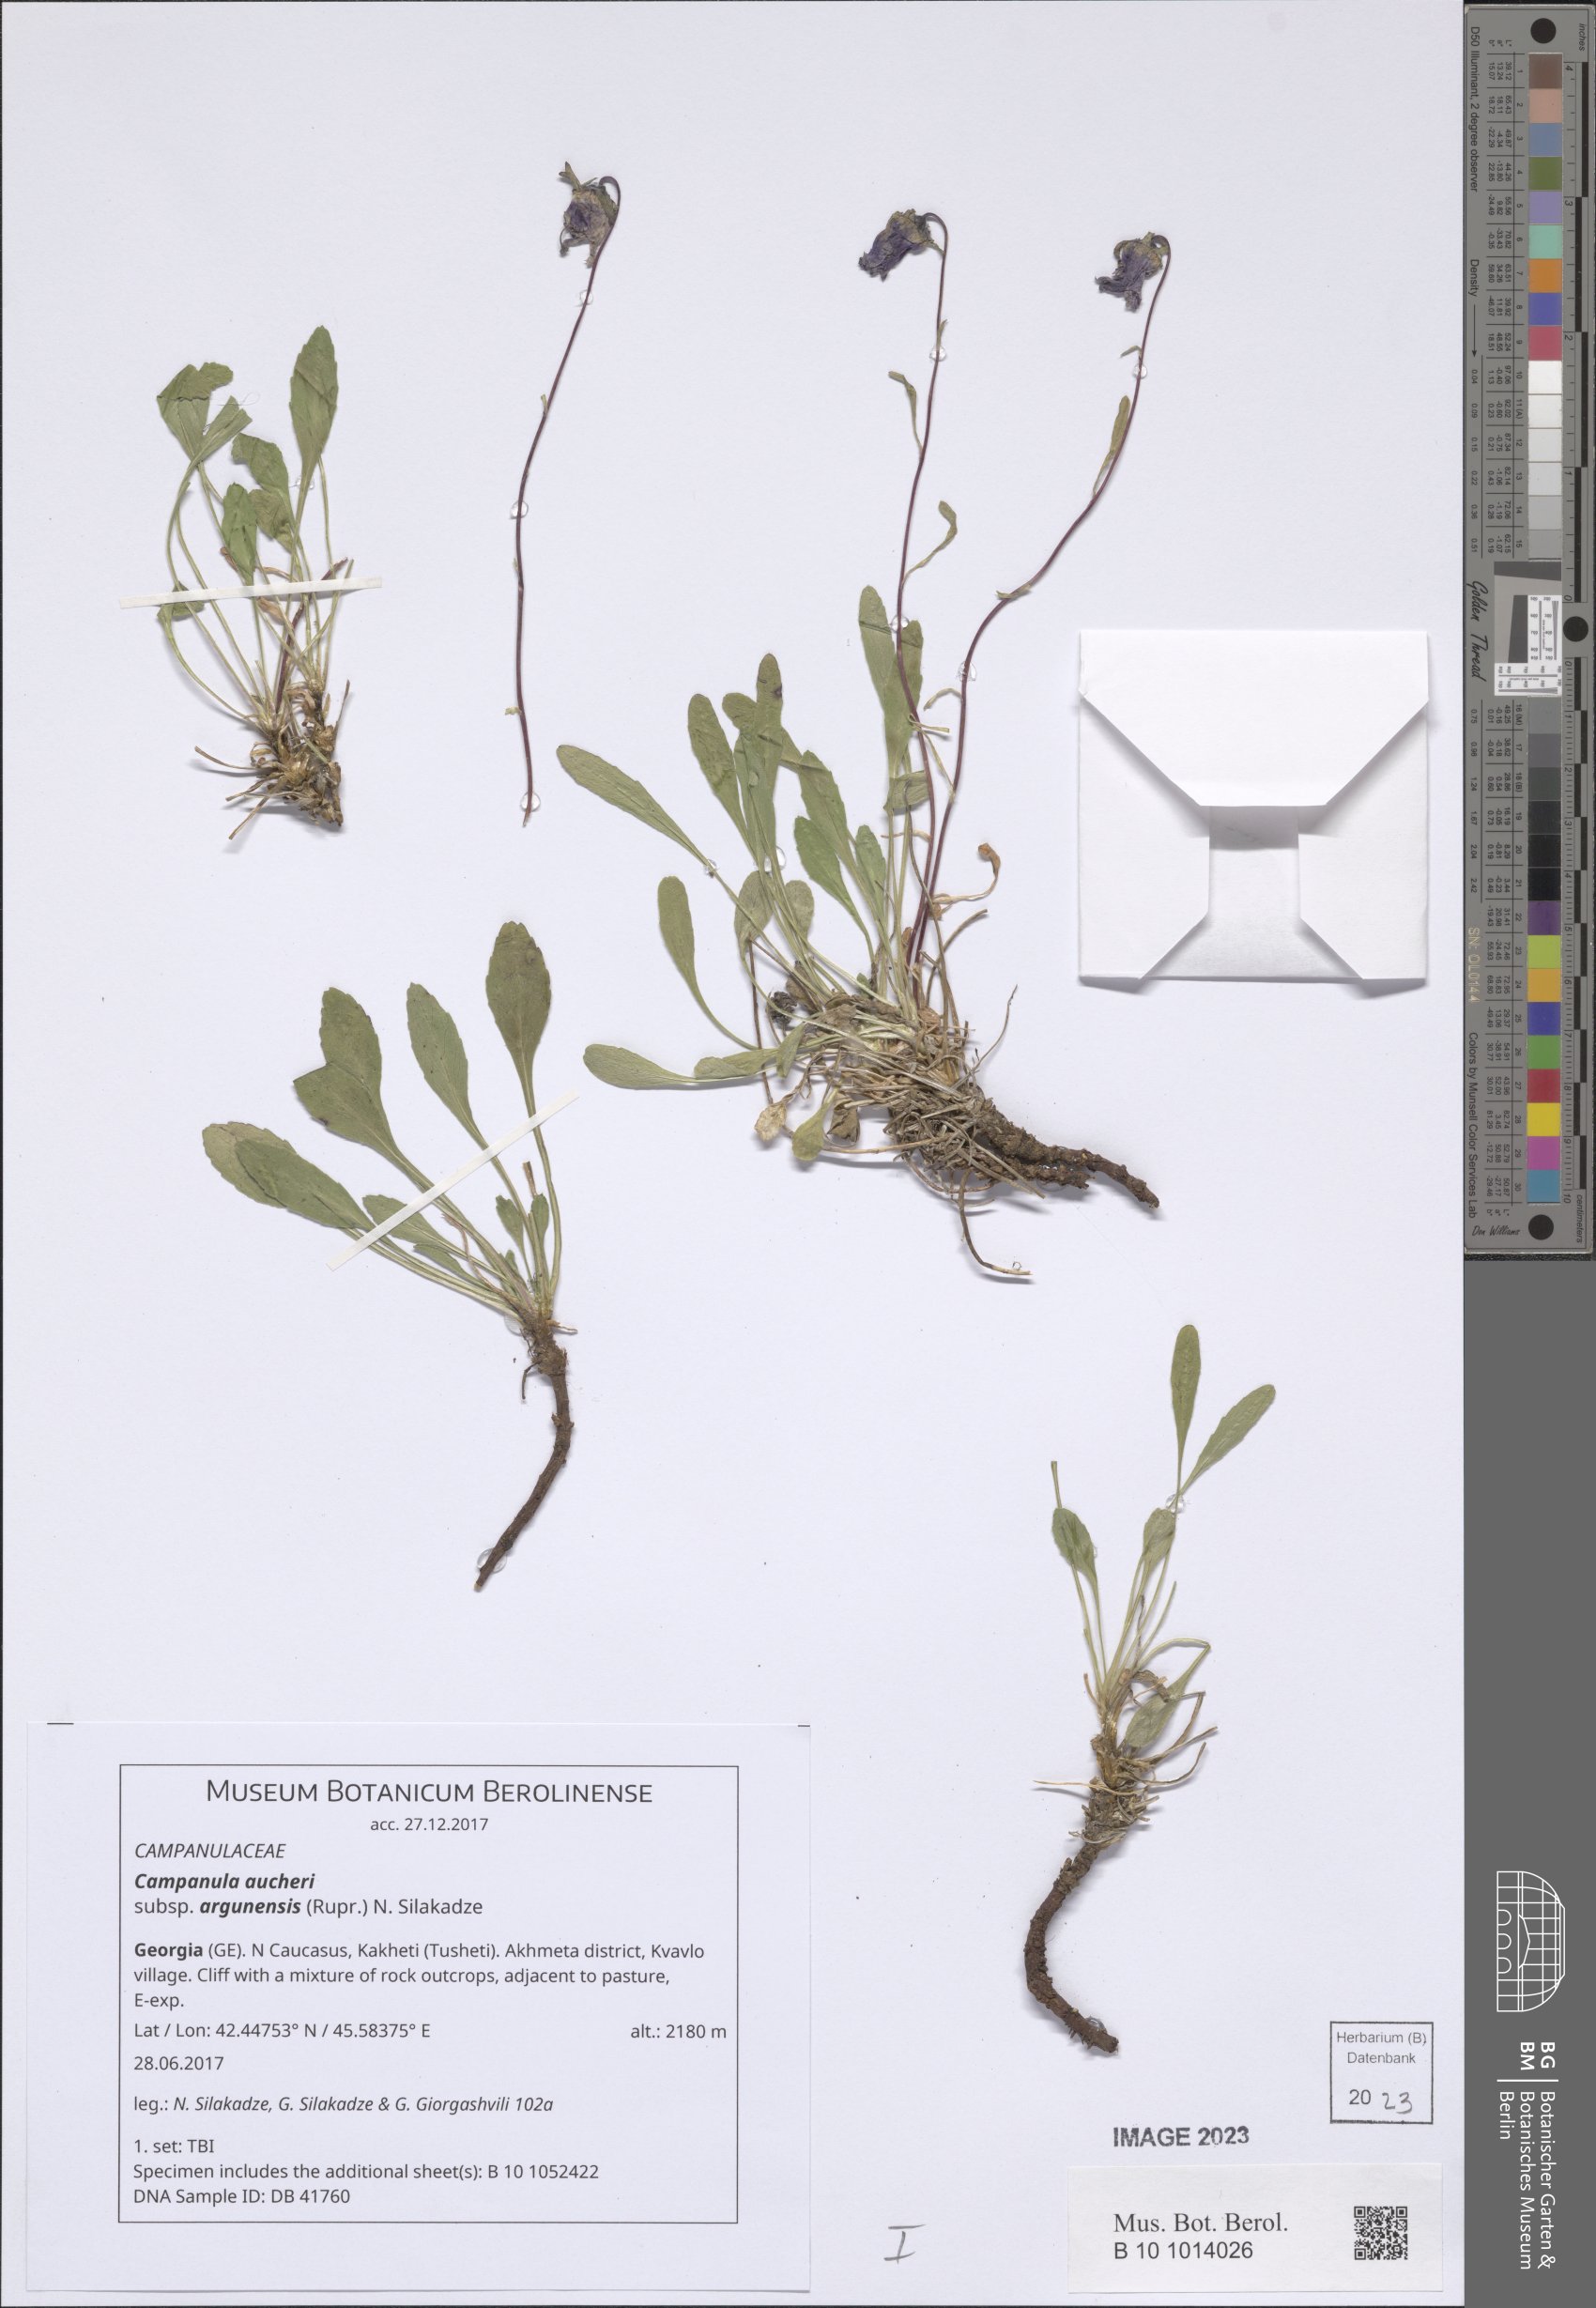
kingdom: Plantae
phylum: Tracheophyta
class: Magnoliopsida
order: Asterales
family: Campanulaceae
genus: Campanula
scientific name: Campanula saxifraga
